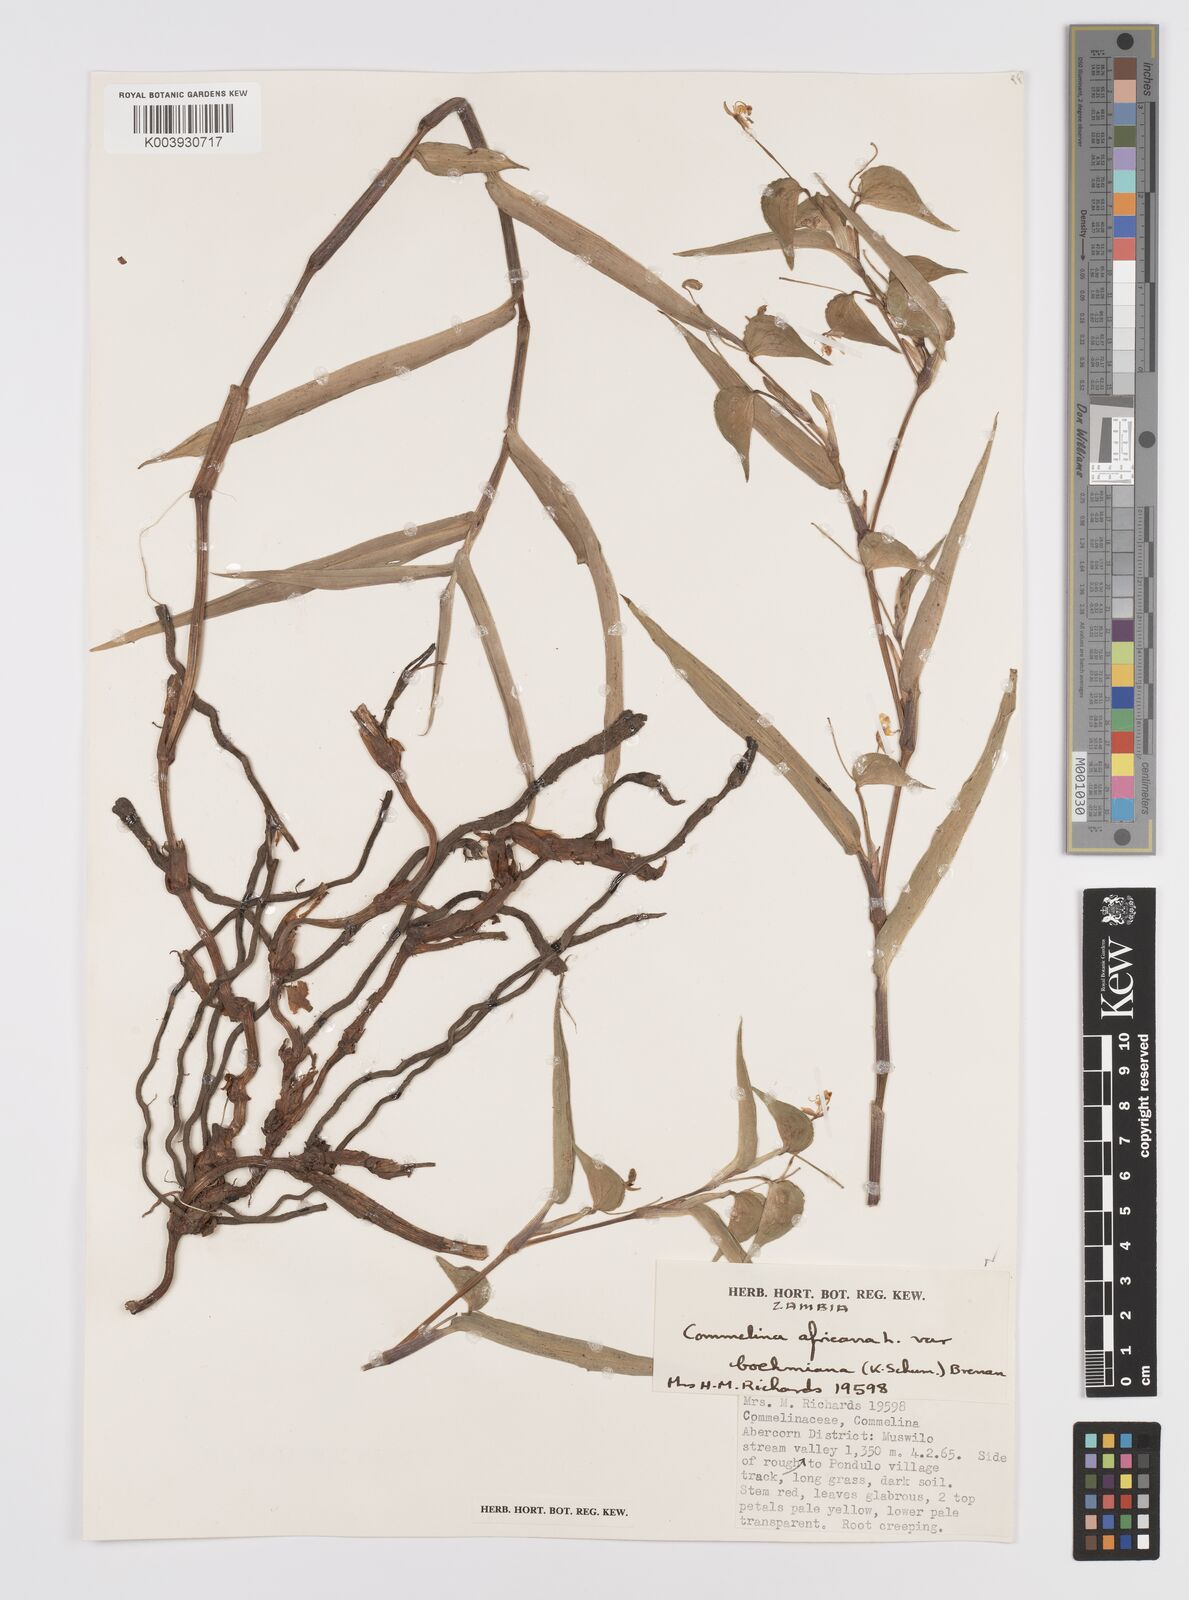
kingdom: Plantae
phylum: Tracheophyta
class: Liliopsida
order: Commelinales
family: Commelinaceae
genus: Commelina
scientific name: Commelina africana
